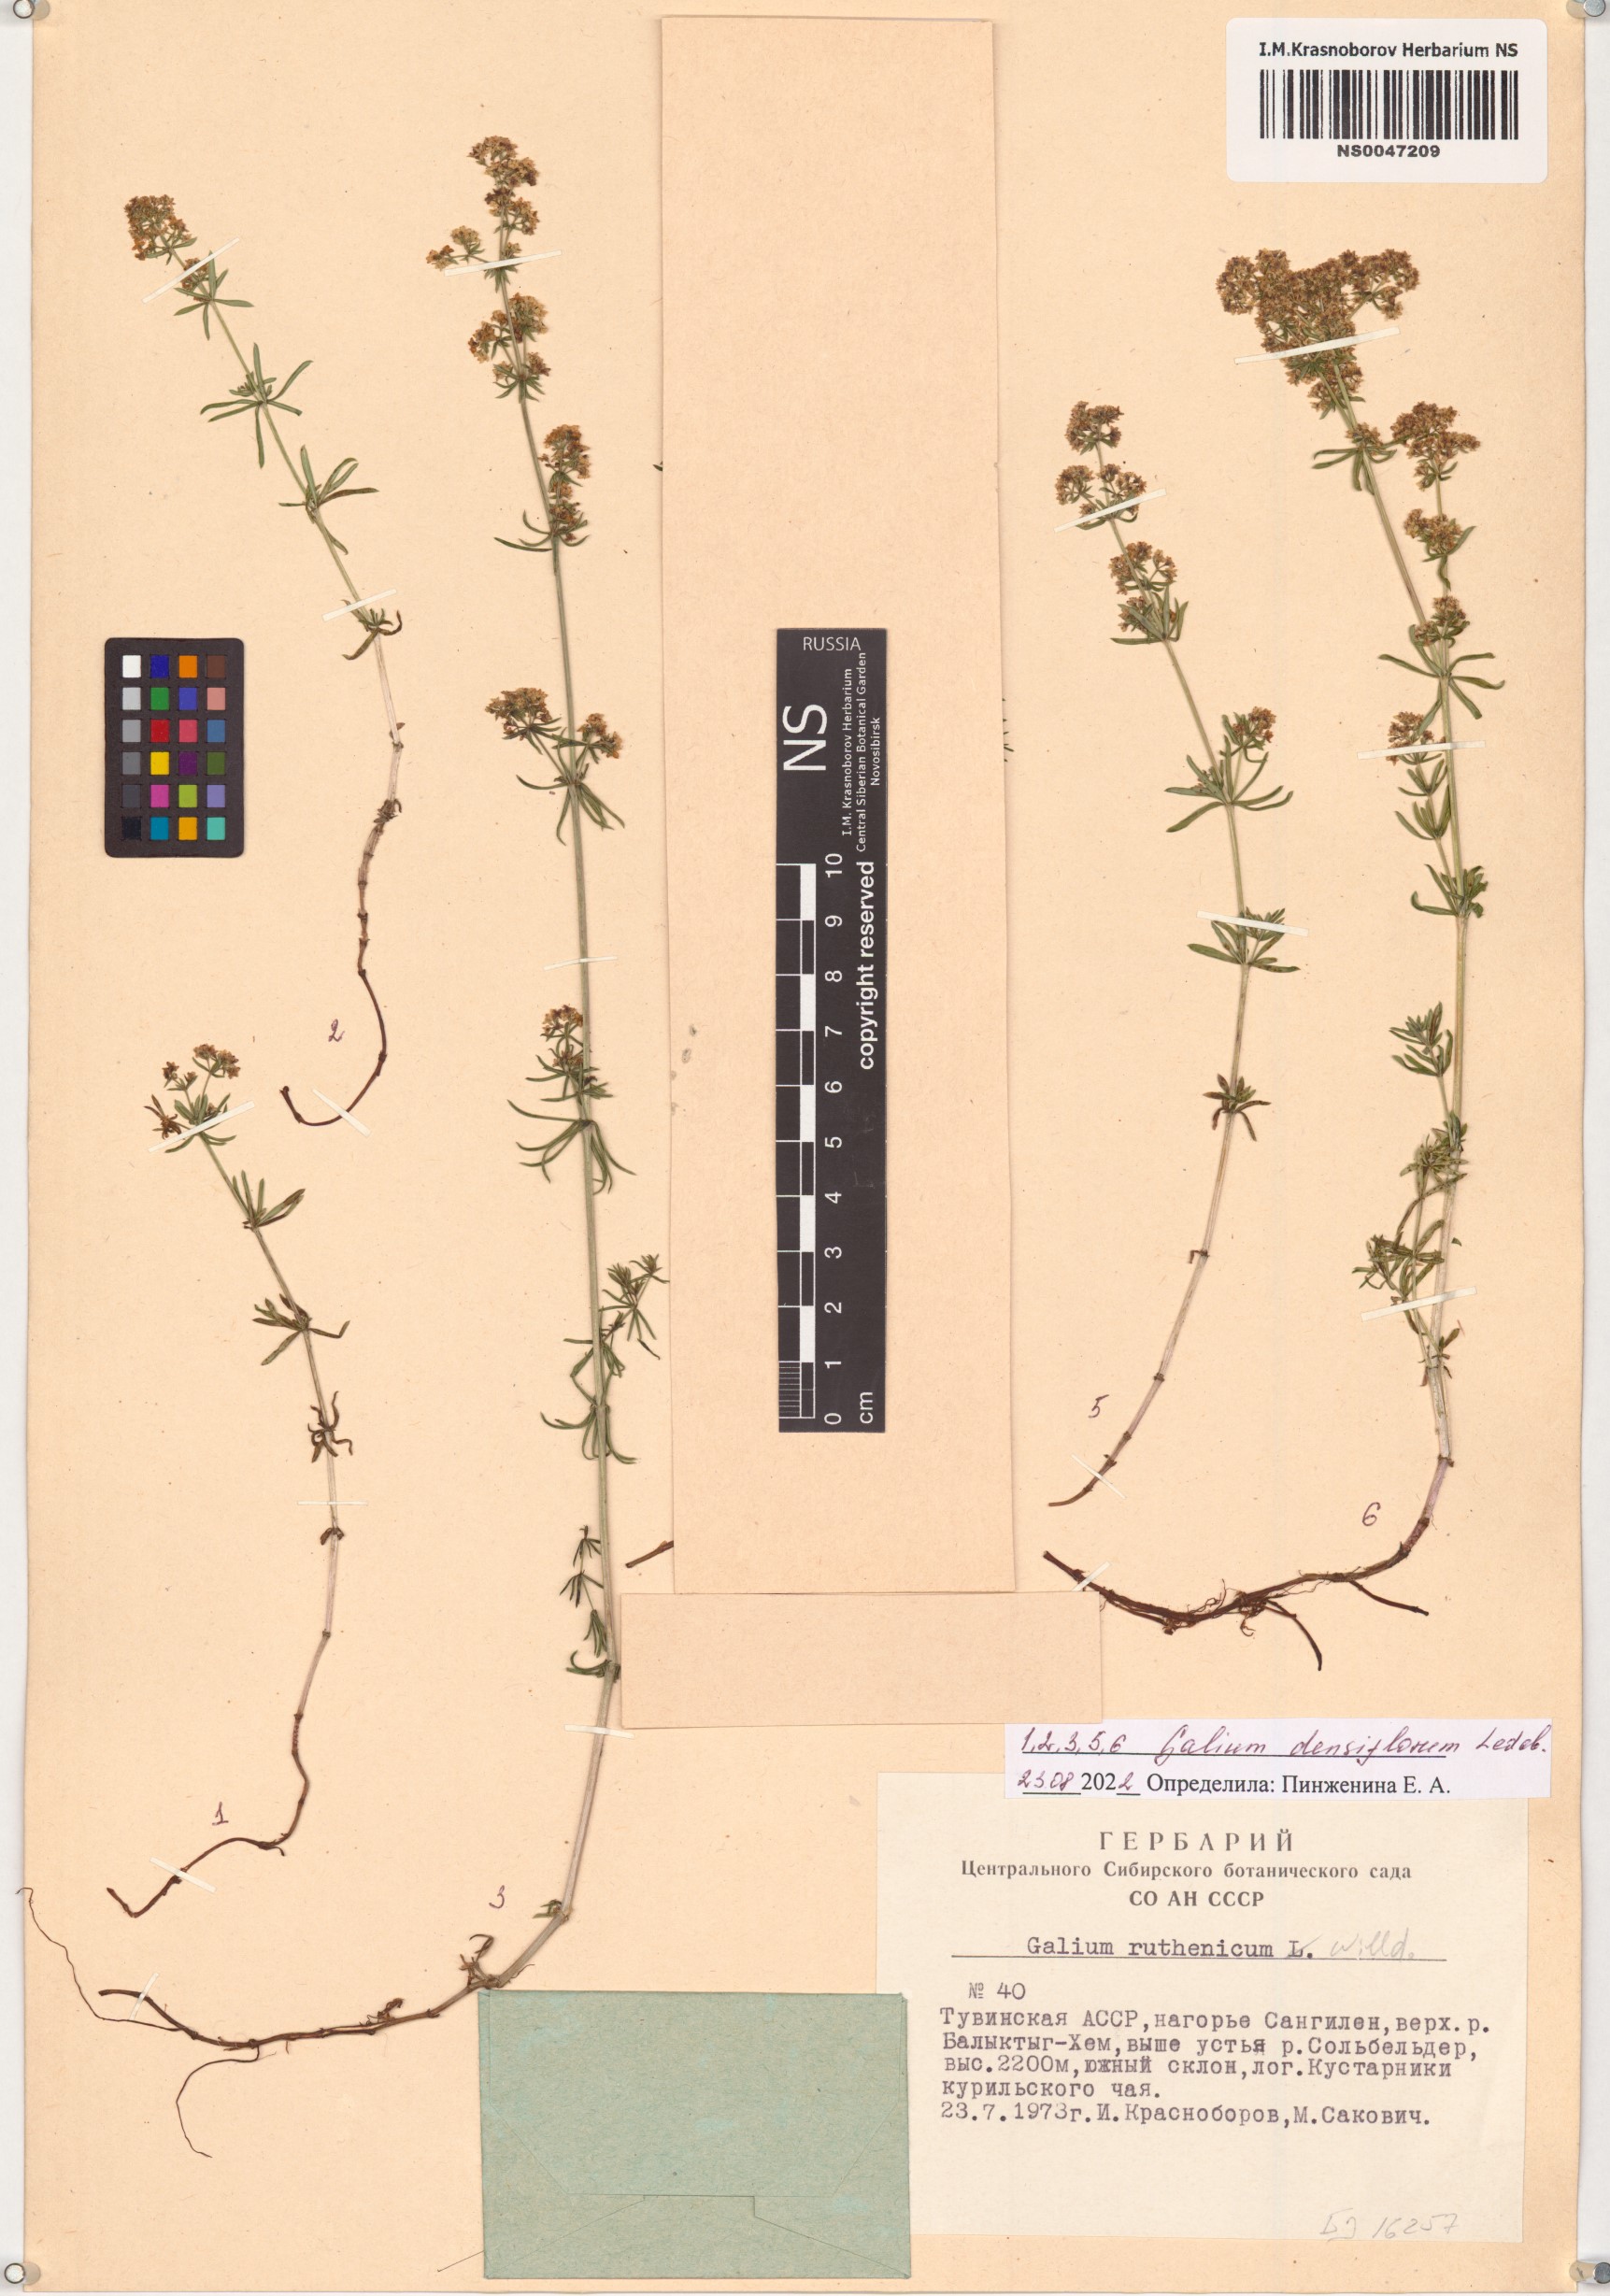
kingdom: Plantae
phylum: Tracheophyta
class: Magnoliopsida
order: Gentianales
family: Rubiaceae
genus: Galium
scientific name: Galium densiflorum
